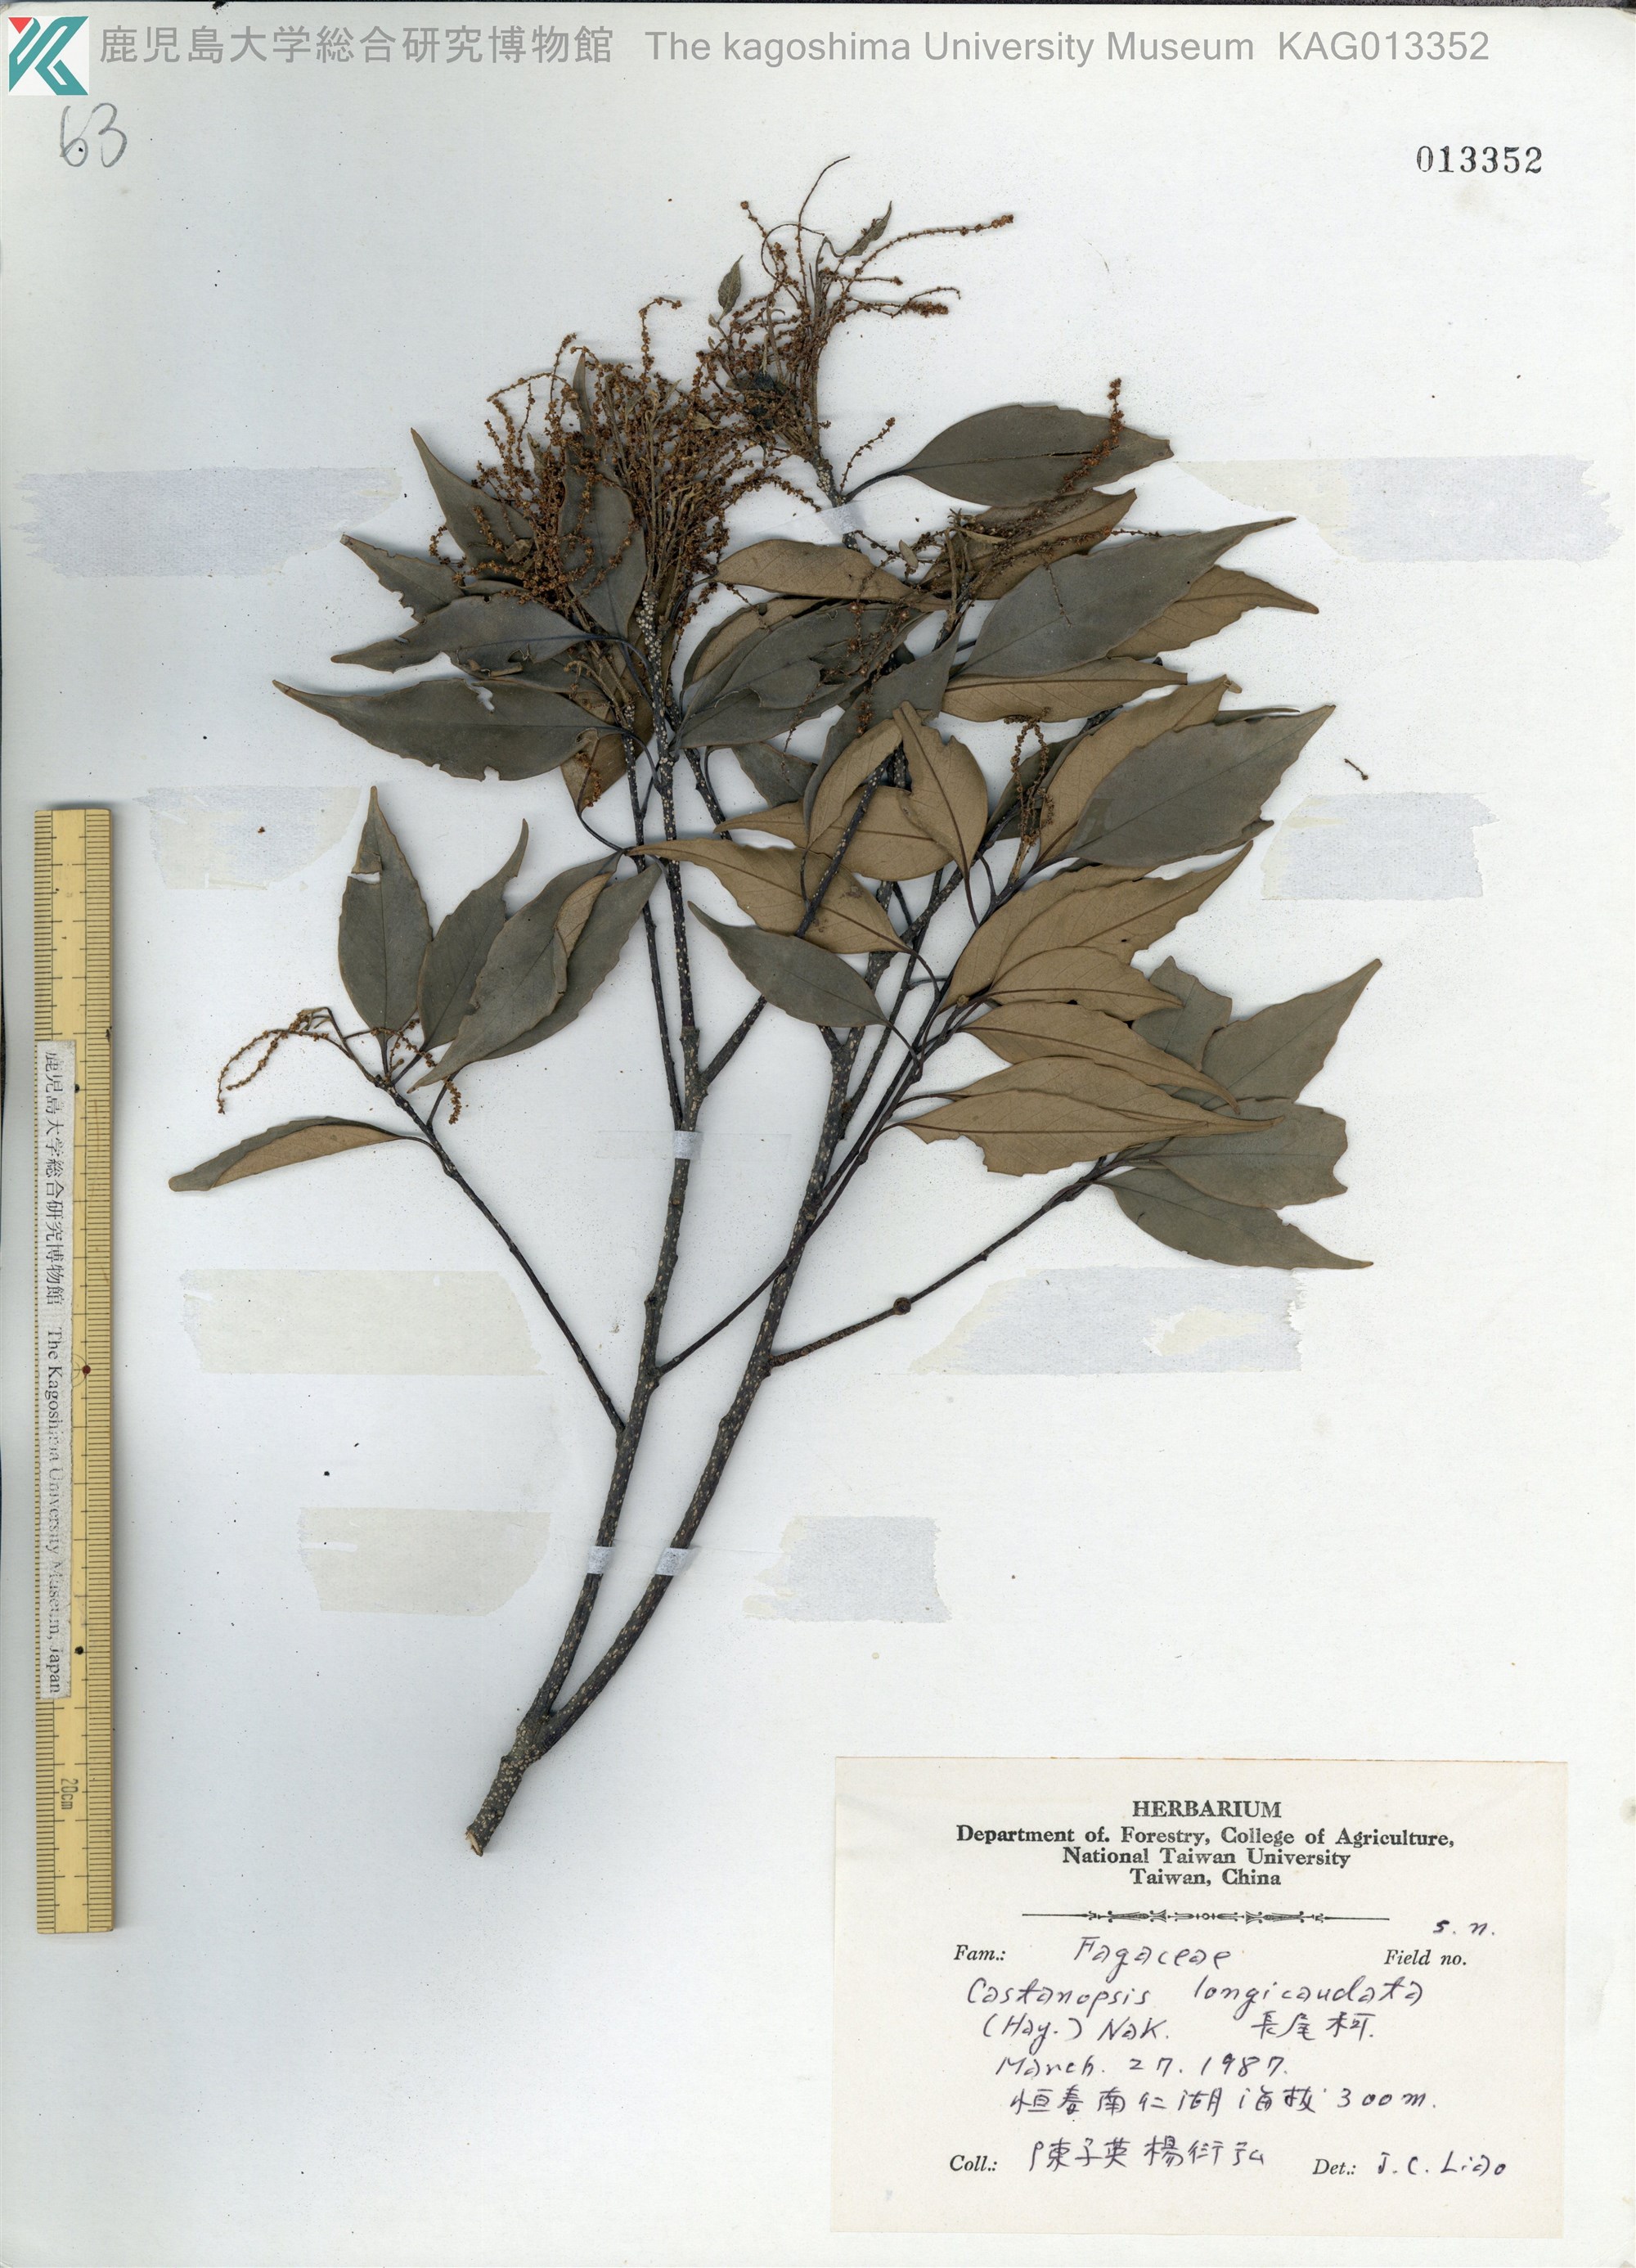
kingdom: Plantae
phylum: Tracheophyta
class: Magnoliopsida
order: Fagales
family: Fagaceae
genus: Castanopsis
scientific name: Castanopsis carlesii
